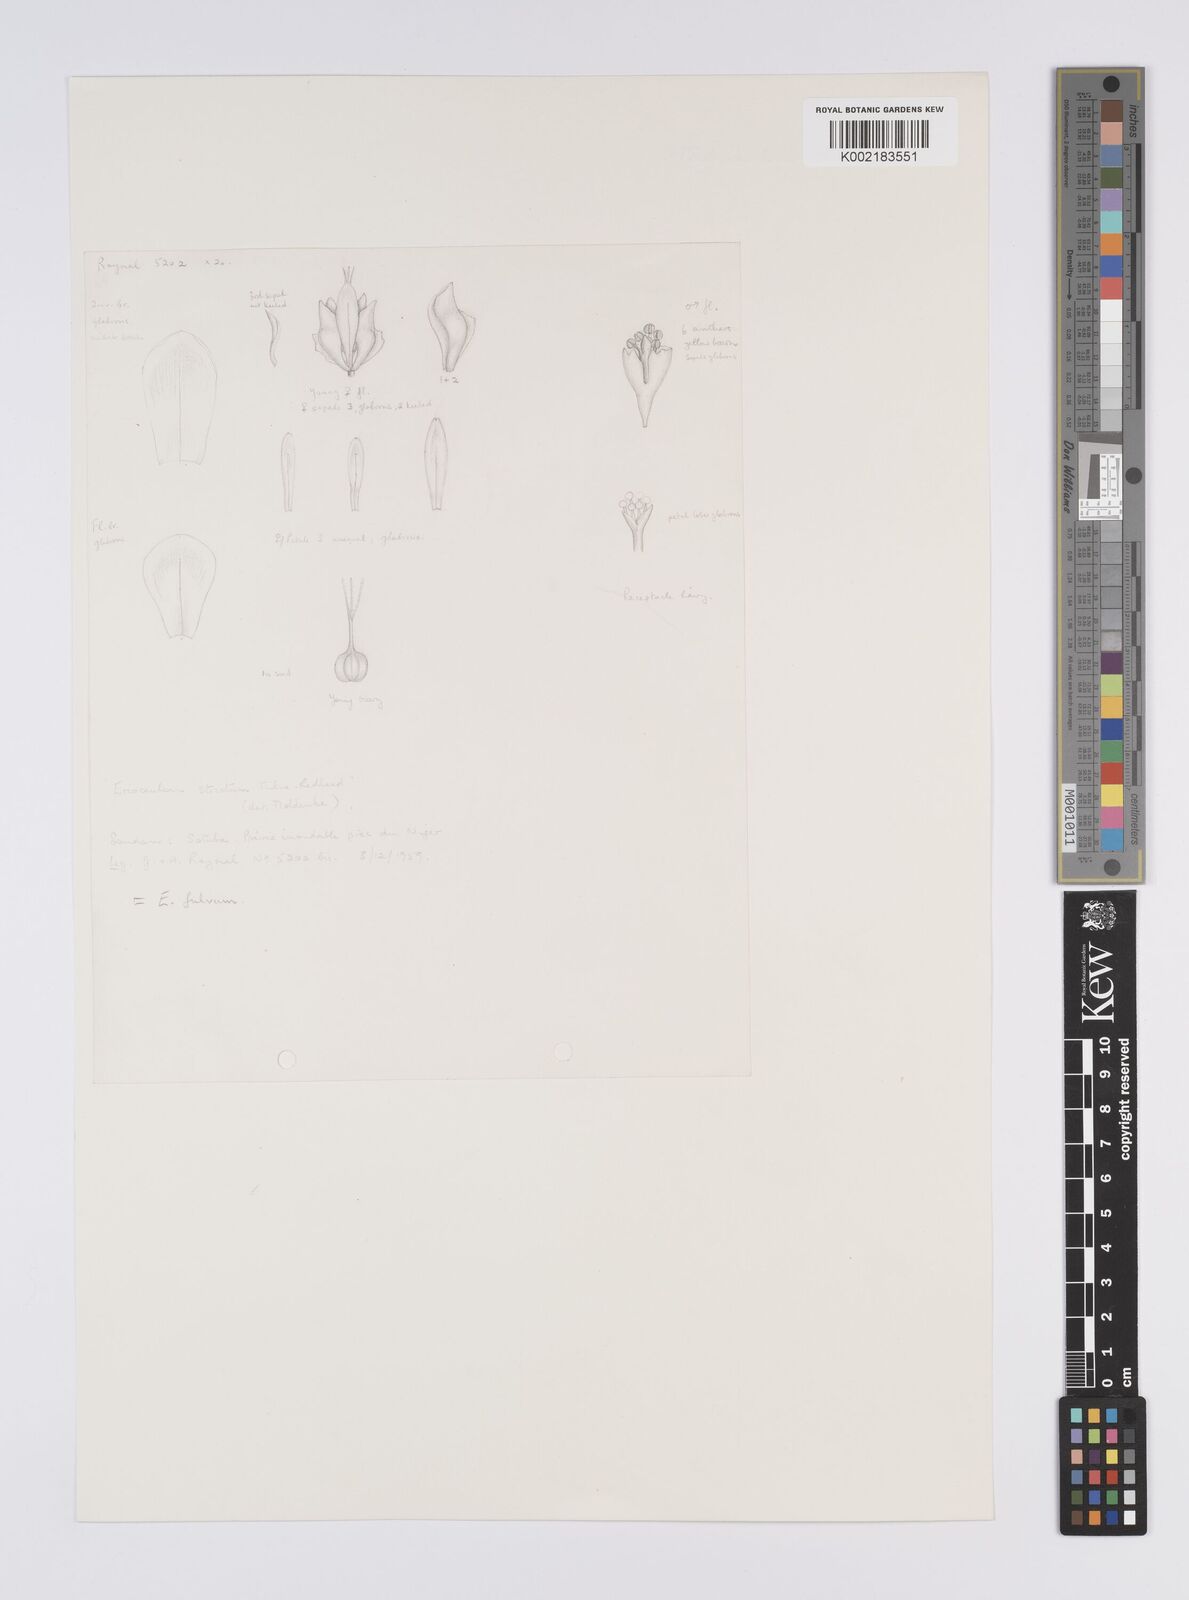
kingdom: Plantae
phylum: Tracheophyta
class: Liliopsida
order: Poales
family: Eriocaulaceae
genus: Eriocaulon
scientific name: Eriocaulon fulvum
